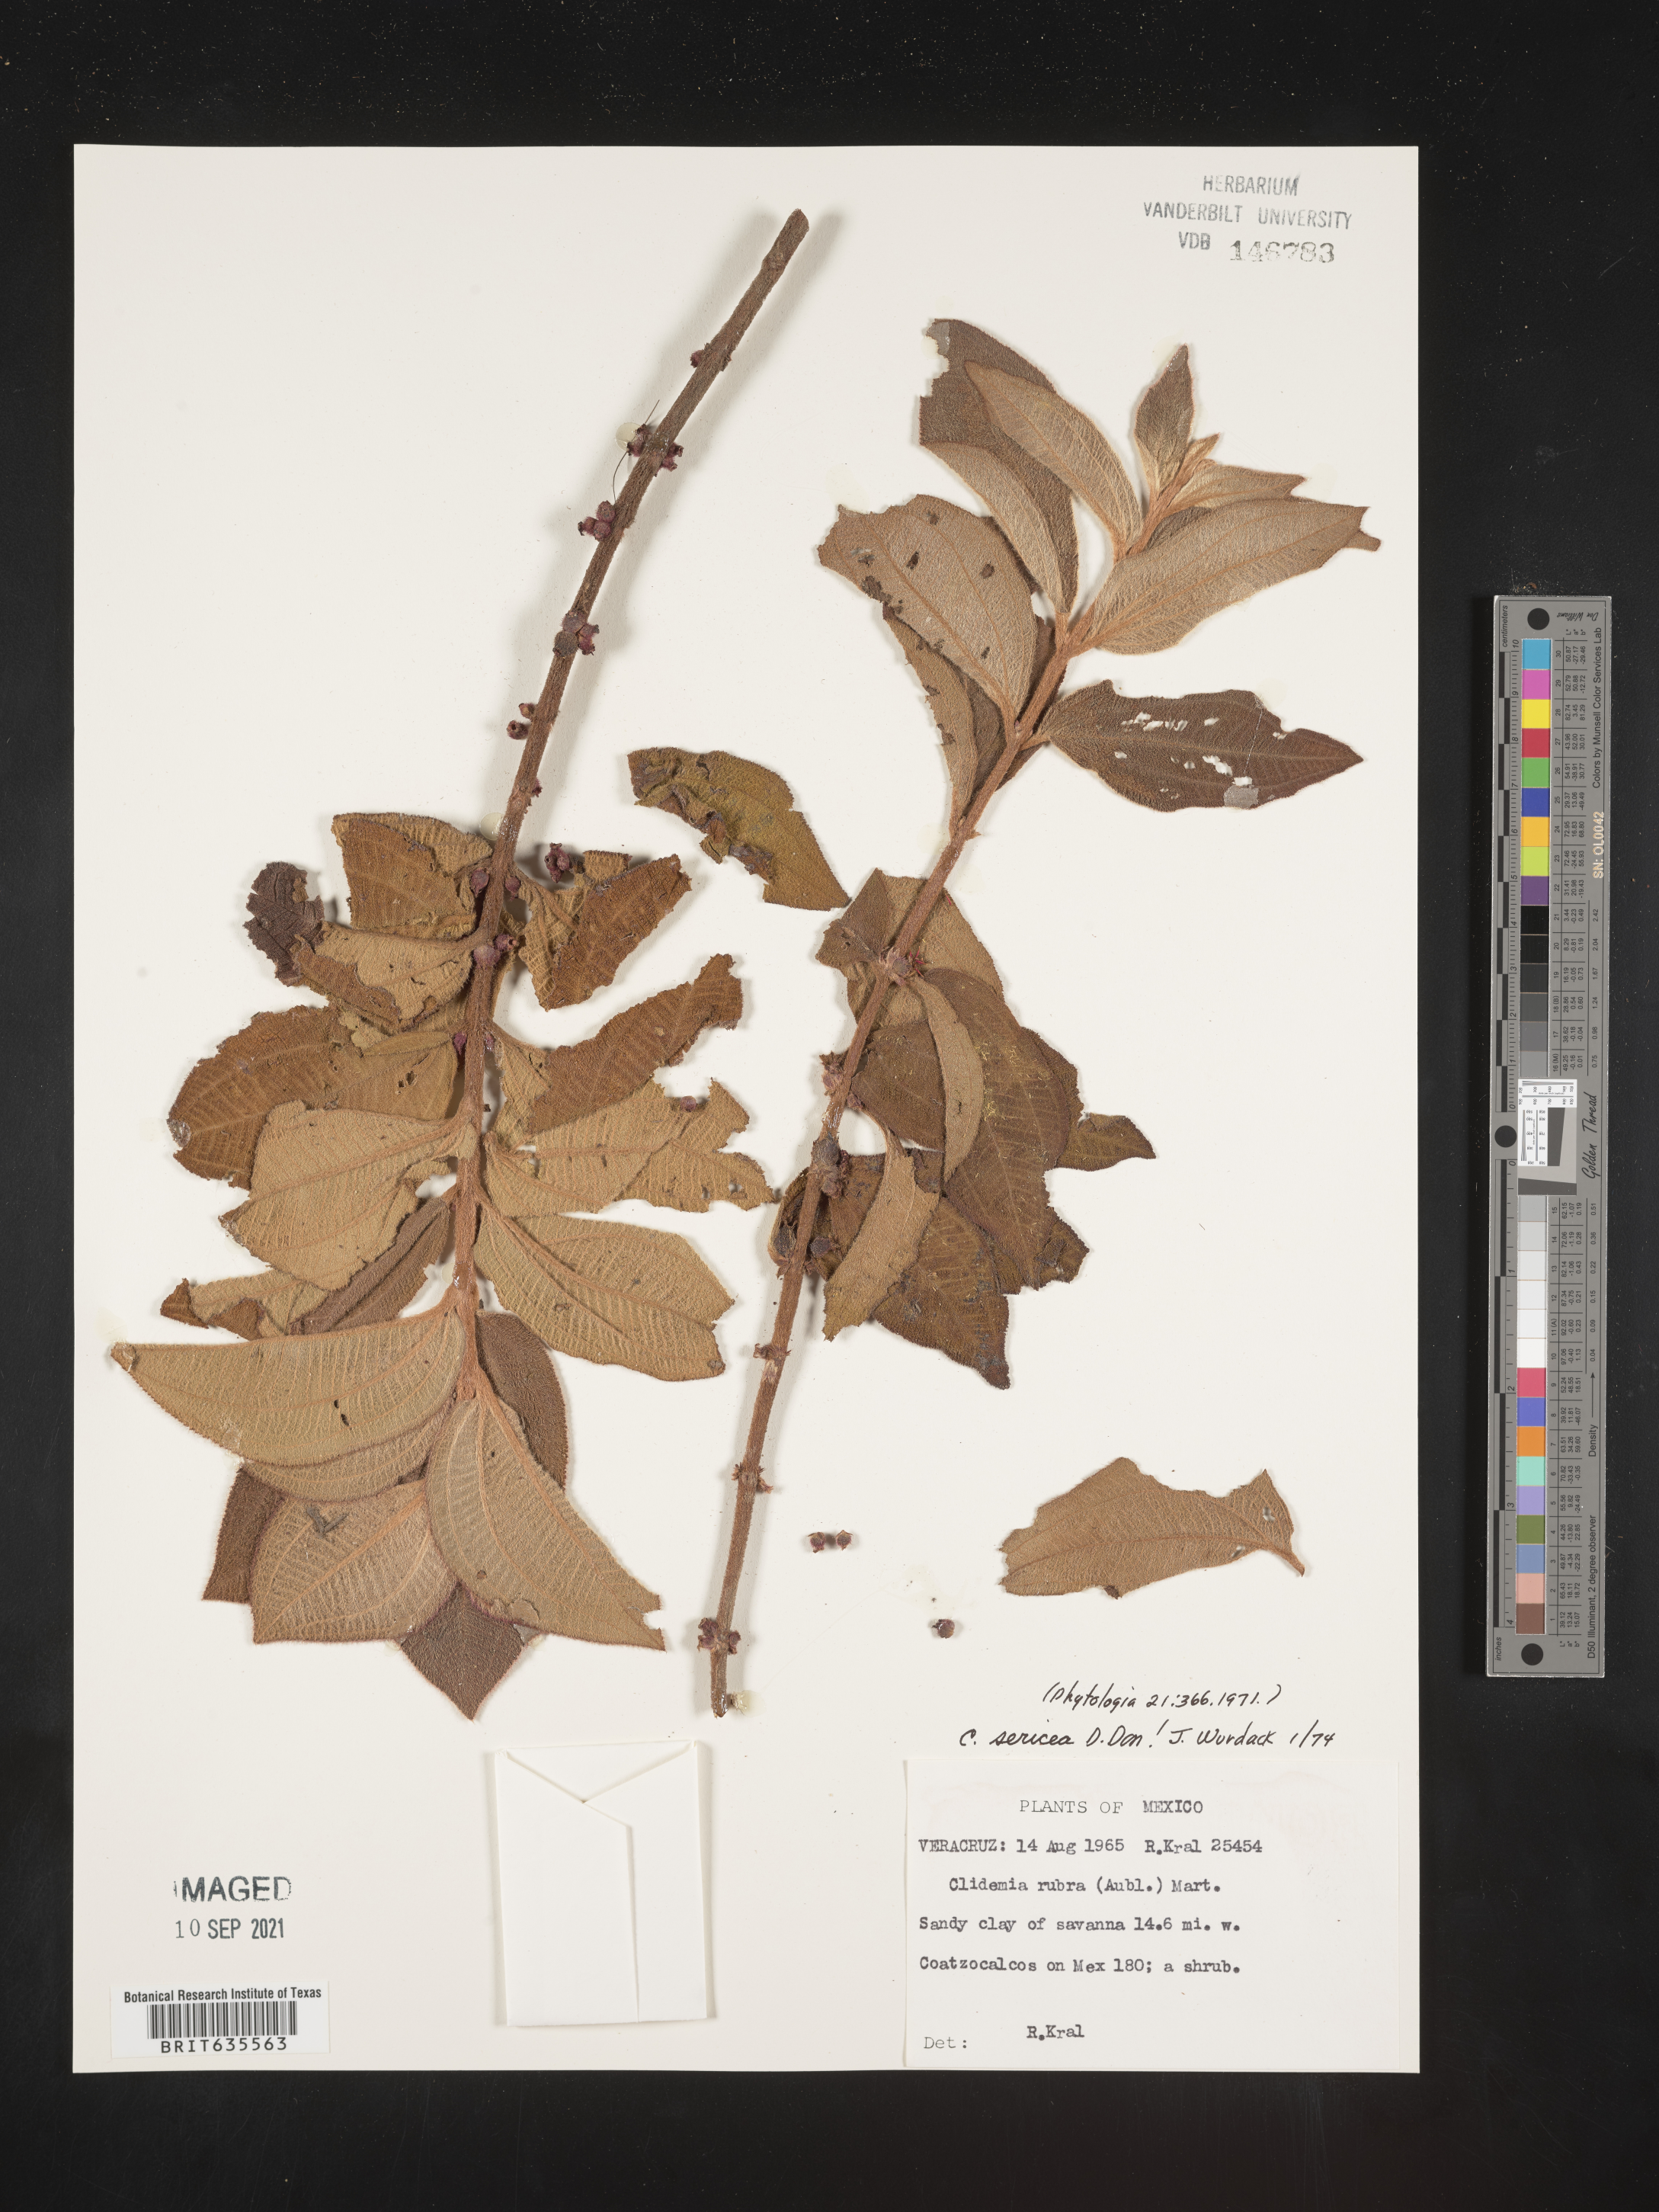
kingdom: Plantae
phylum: Tracheophyta
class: Magnoliopsida
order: Myrtales
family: Melastomataceae
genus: Miconia
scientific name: Miconia
